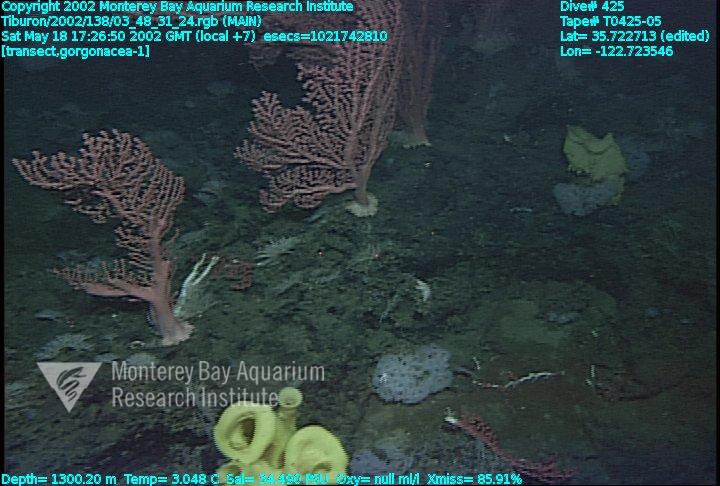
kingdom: Animalia
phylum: Porifera
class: Hexactinellida
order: Sceptrulophora
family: Farreidae
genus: Farrea
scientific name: Farrea occa
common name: Reversed glass sponge
